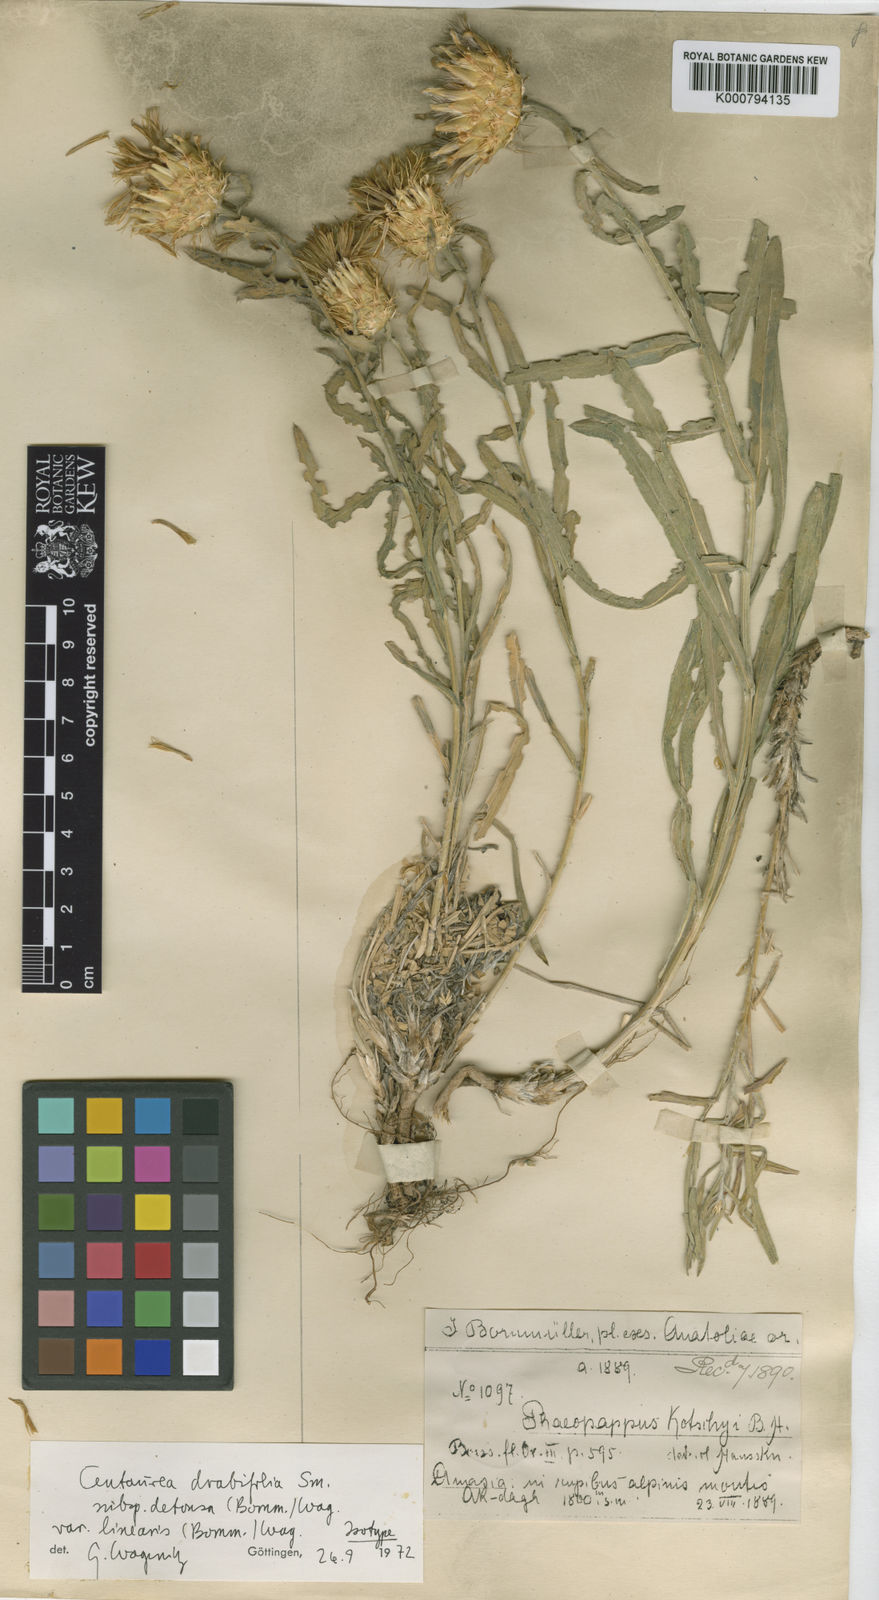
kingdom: Plantae
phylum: Tracheophyta
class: Magnoliopsida
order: Asterales
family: Asteraceae
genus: Centaurea
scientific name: Centaurea drabifolia
